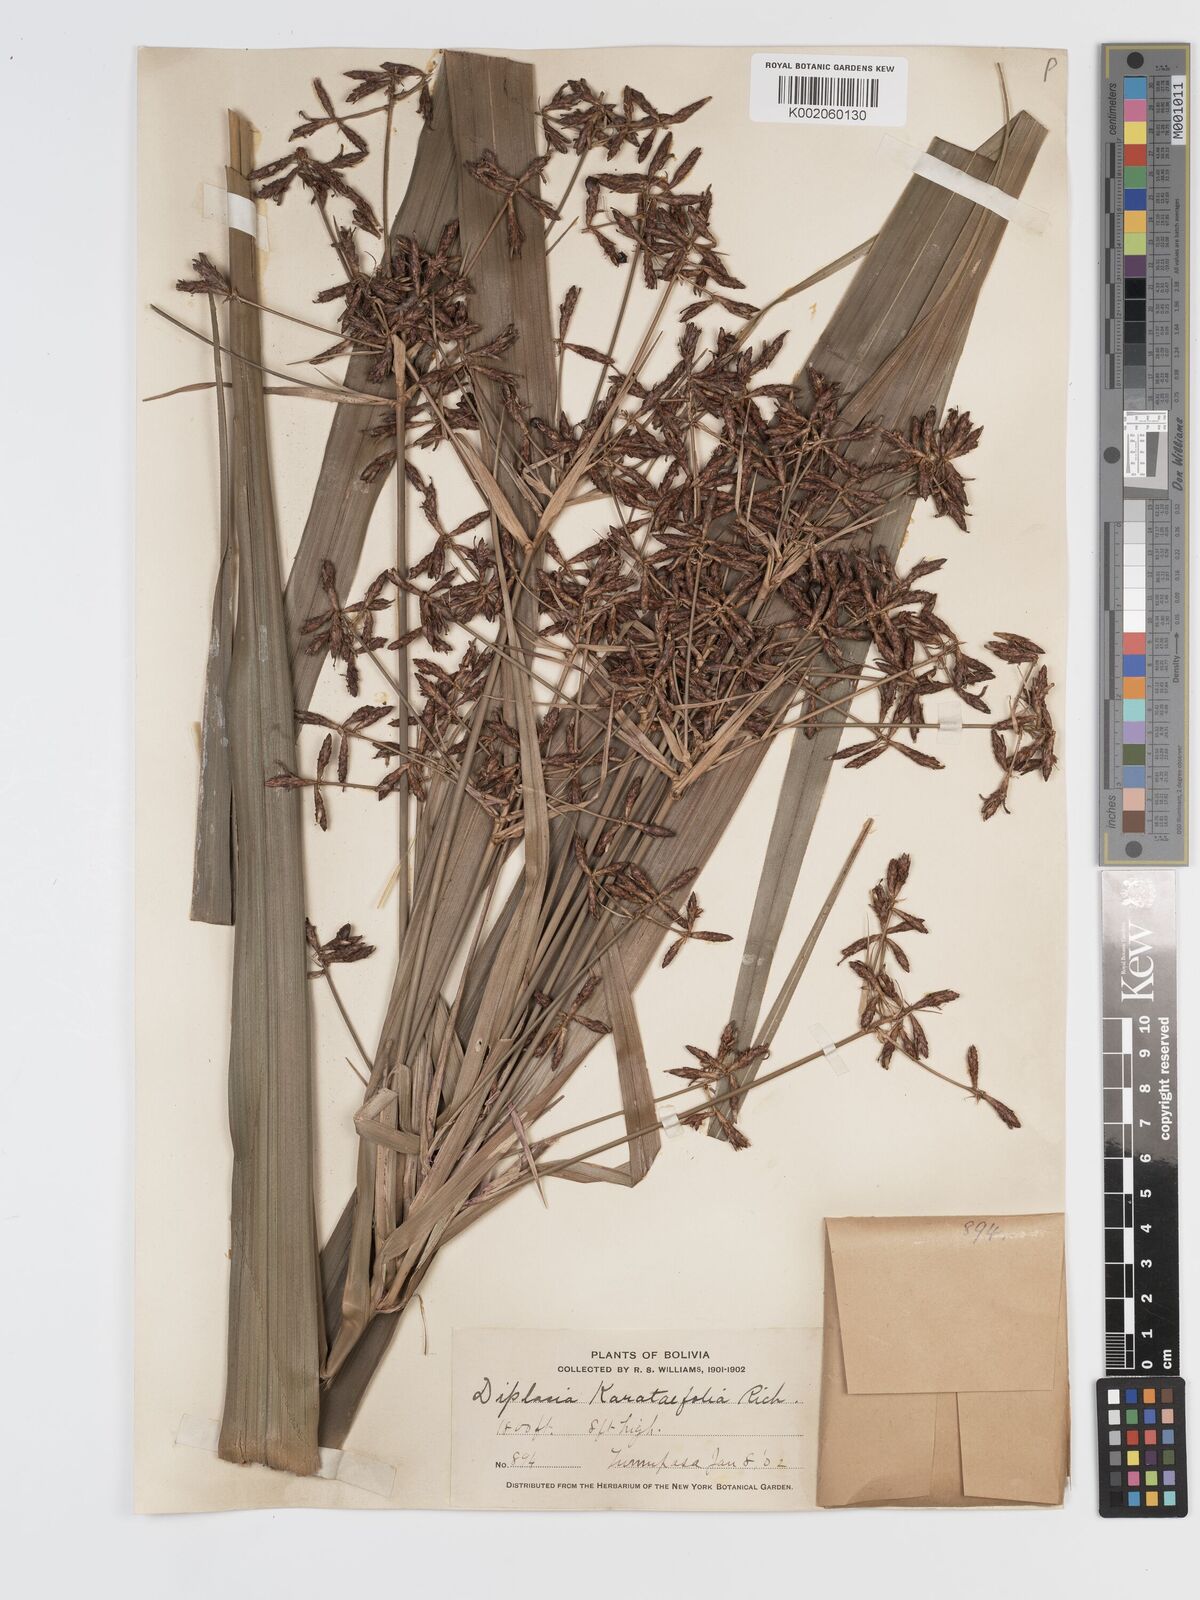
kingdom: Plantae
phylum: Tracheophyta
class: Liliopsida
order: Poales
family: Cyperaceae
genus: Diplasia
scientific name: Diplasia karatifolia
